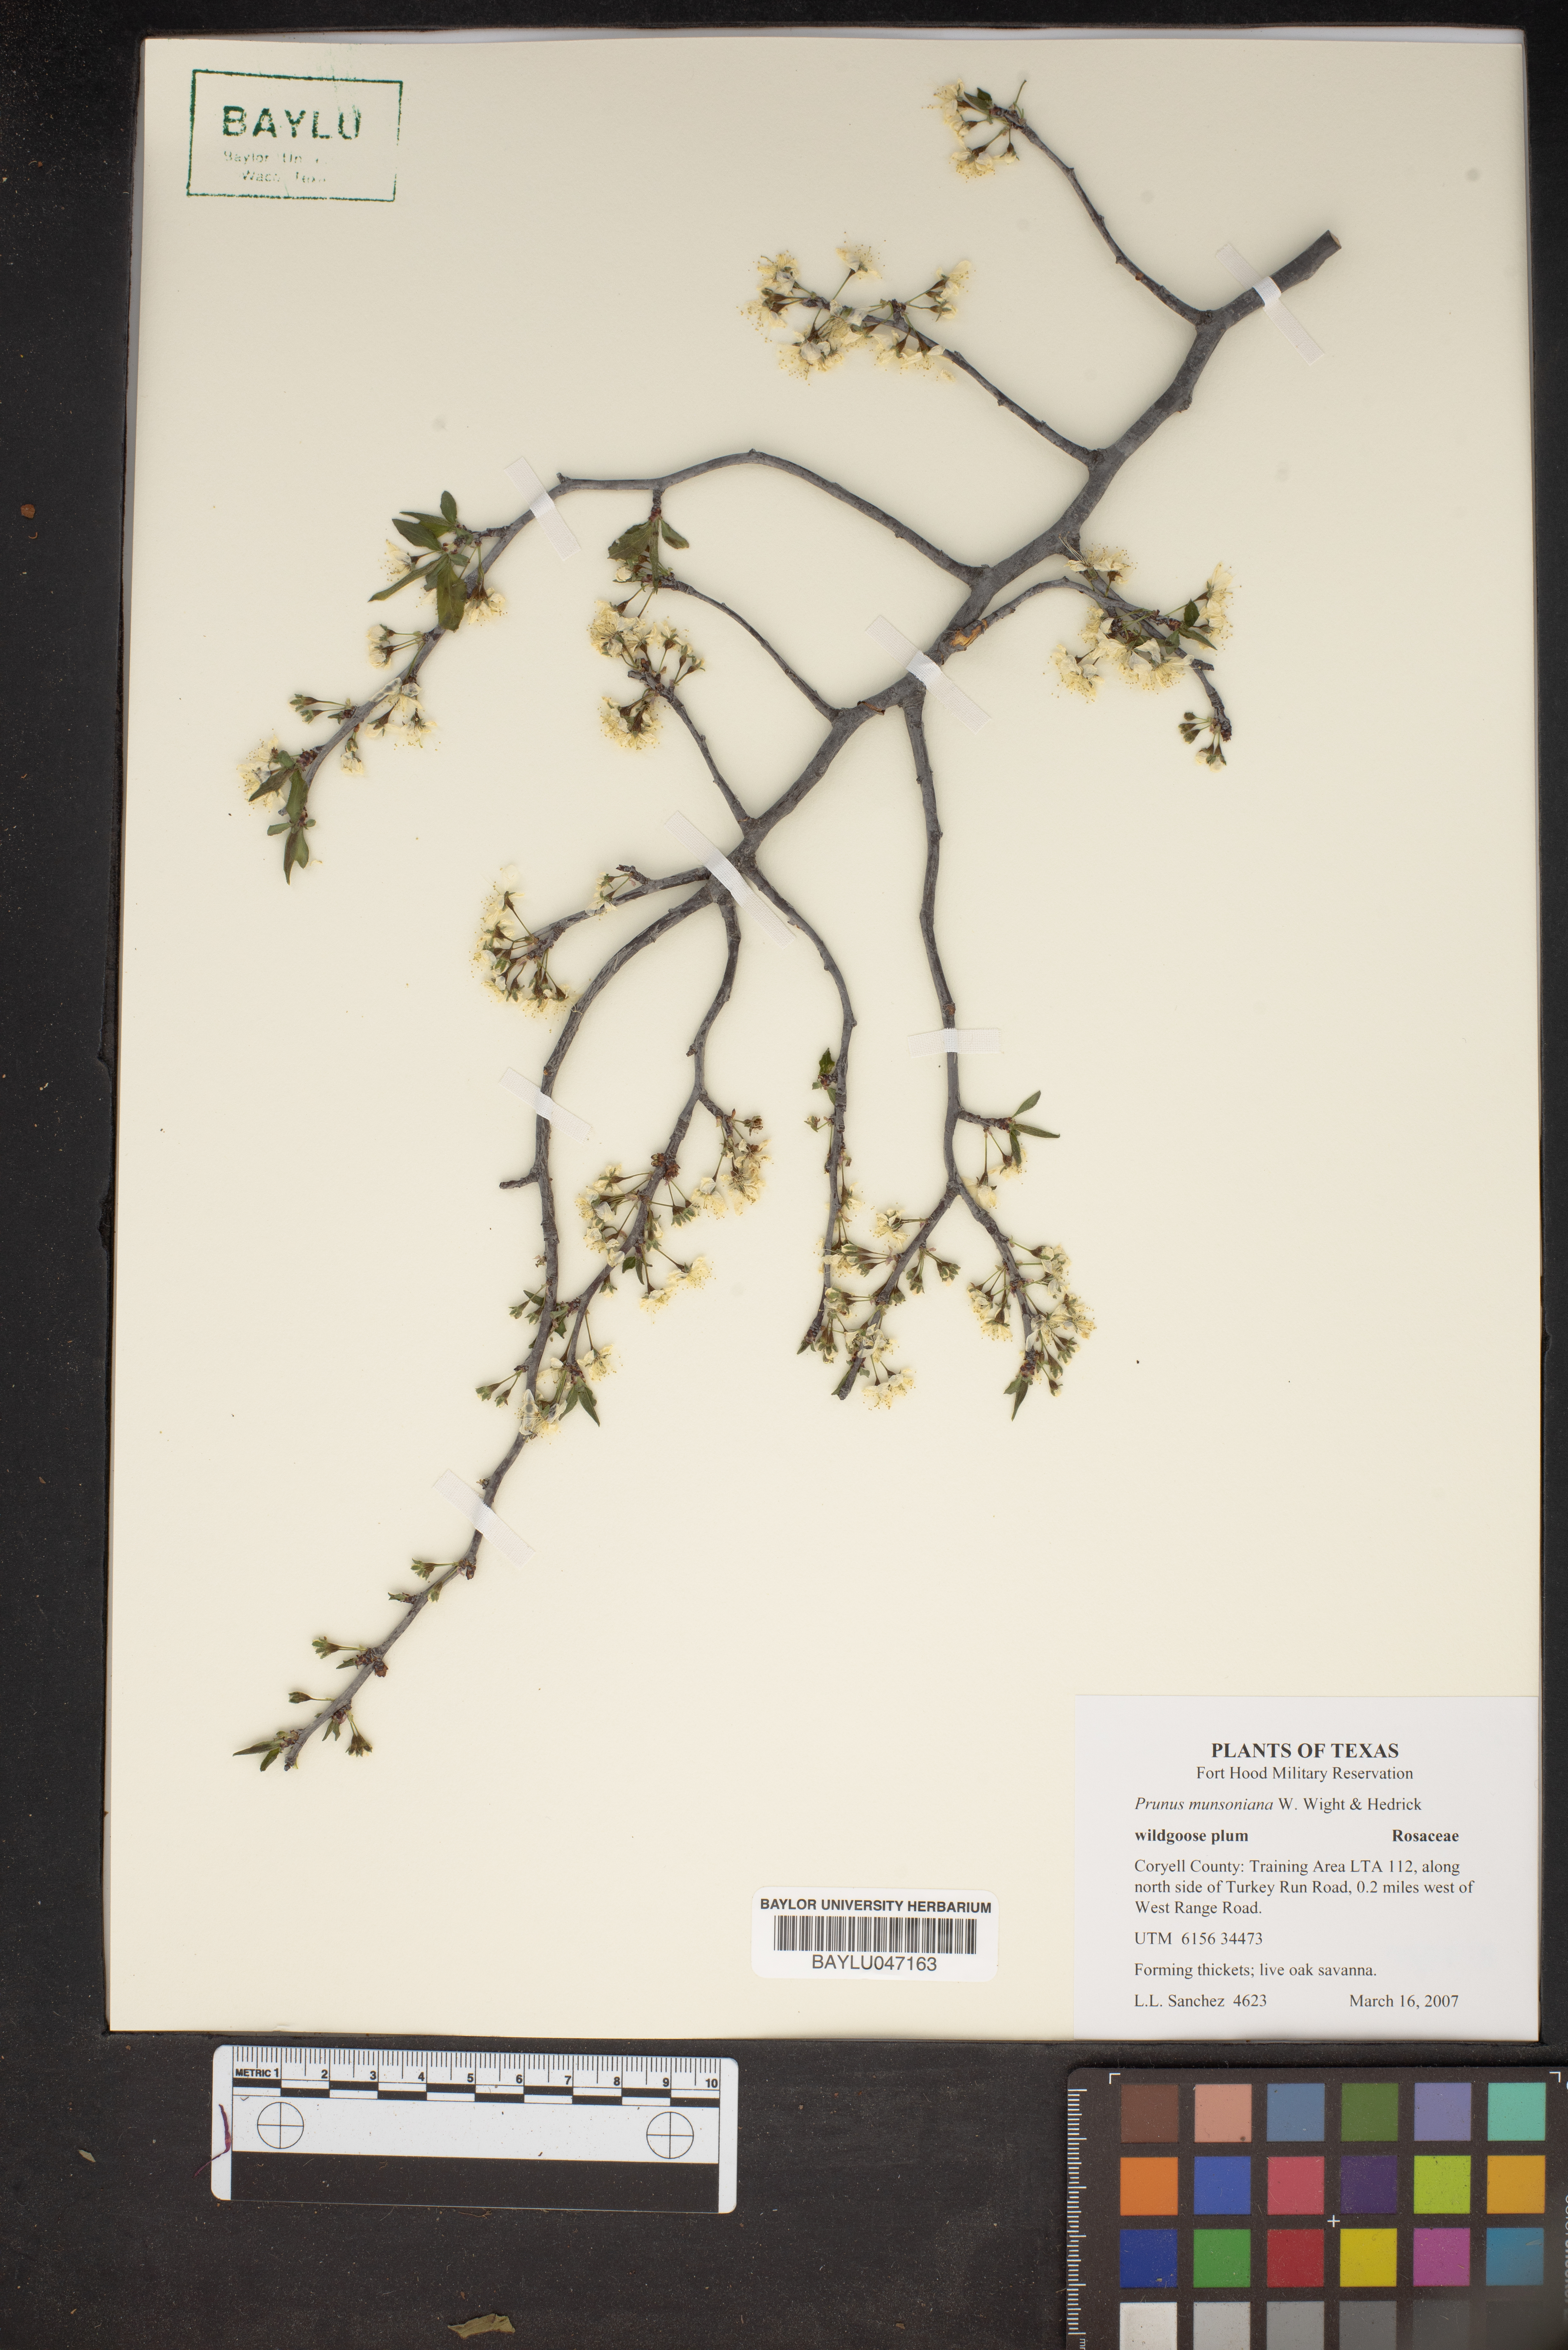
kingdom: Plantae
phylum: Tracheophyta
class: Magnoliopsida
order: Rosales
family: Rosaceae
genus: Prunus
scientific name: Prunus munsoniana
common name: Creek plum
